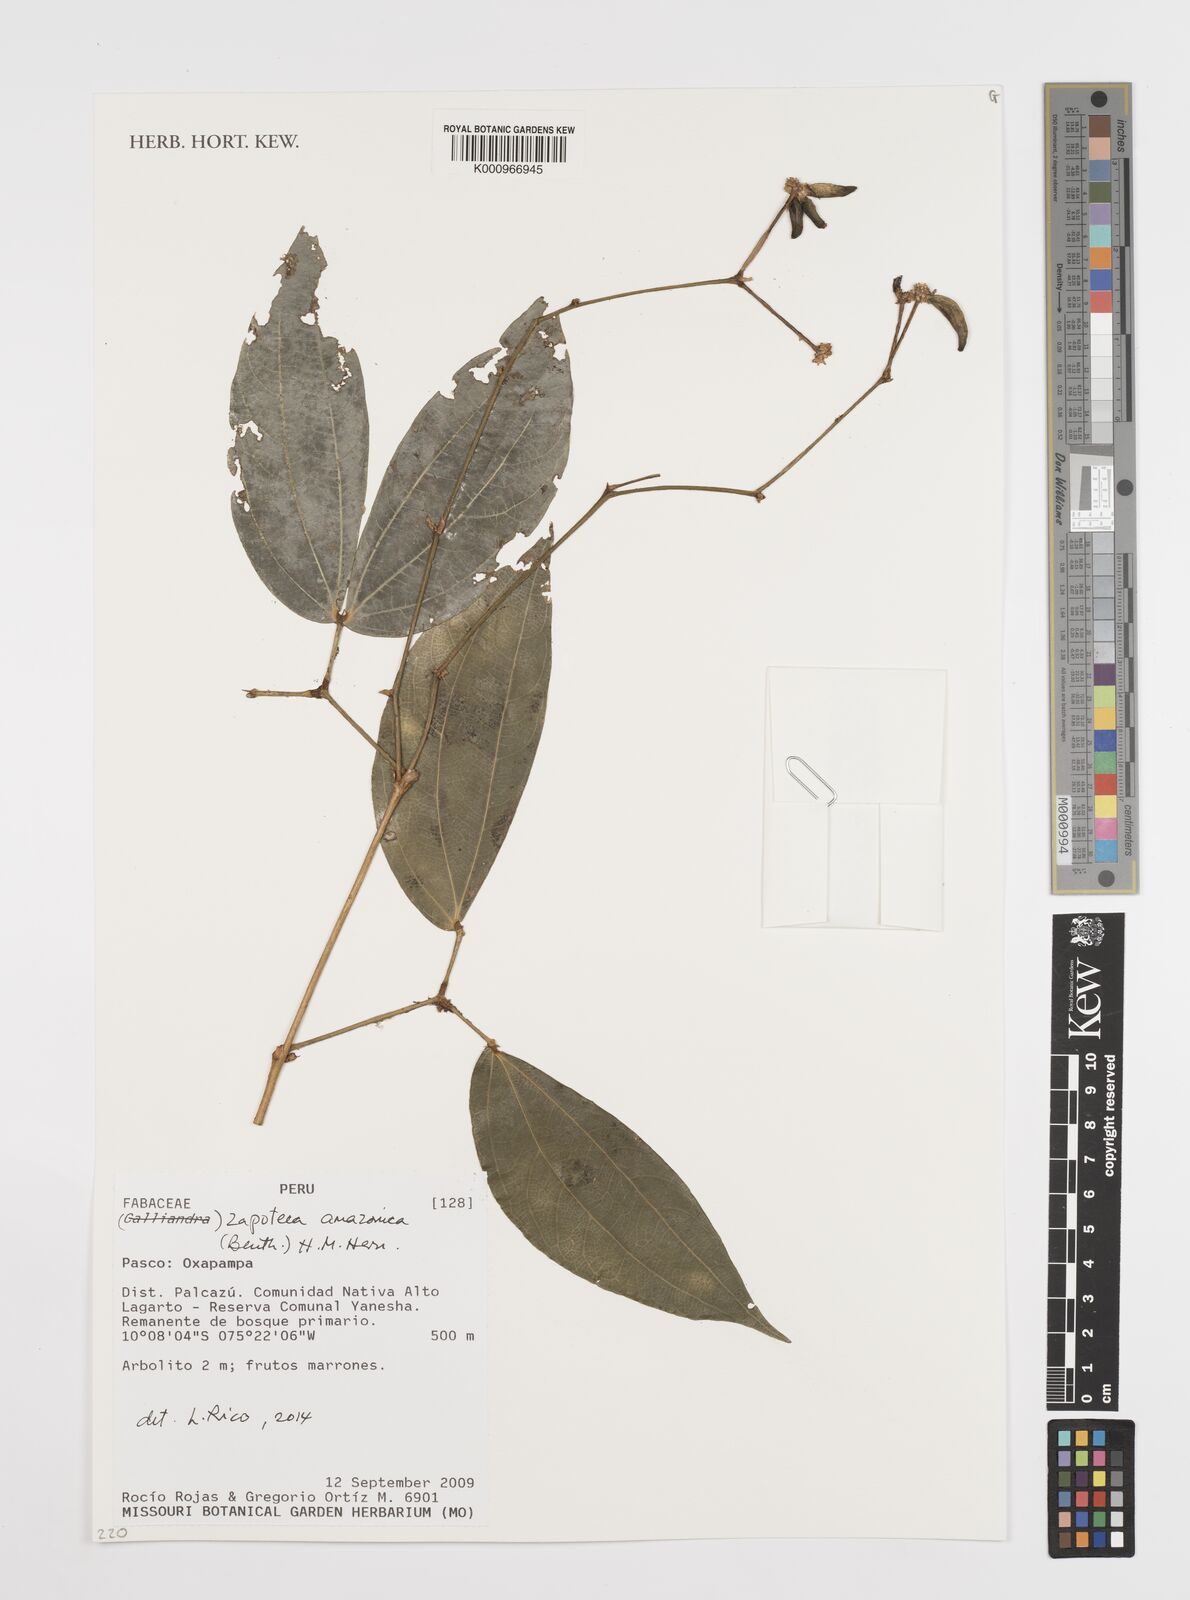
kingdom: Plantae
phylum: Tracheophyta
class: Magnoliopsida
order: Fabales
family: Fabaceae
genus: Zapoteca
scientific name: Zapoteca amazonica
